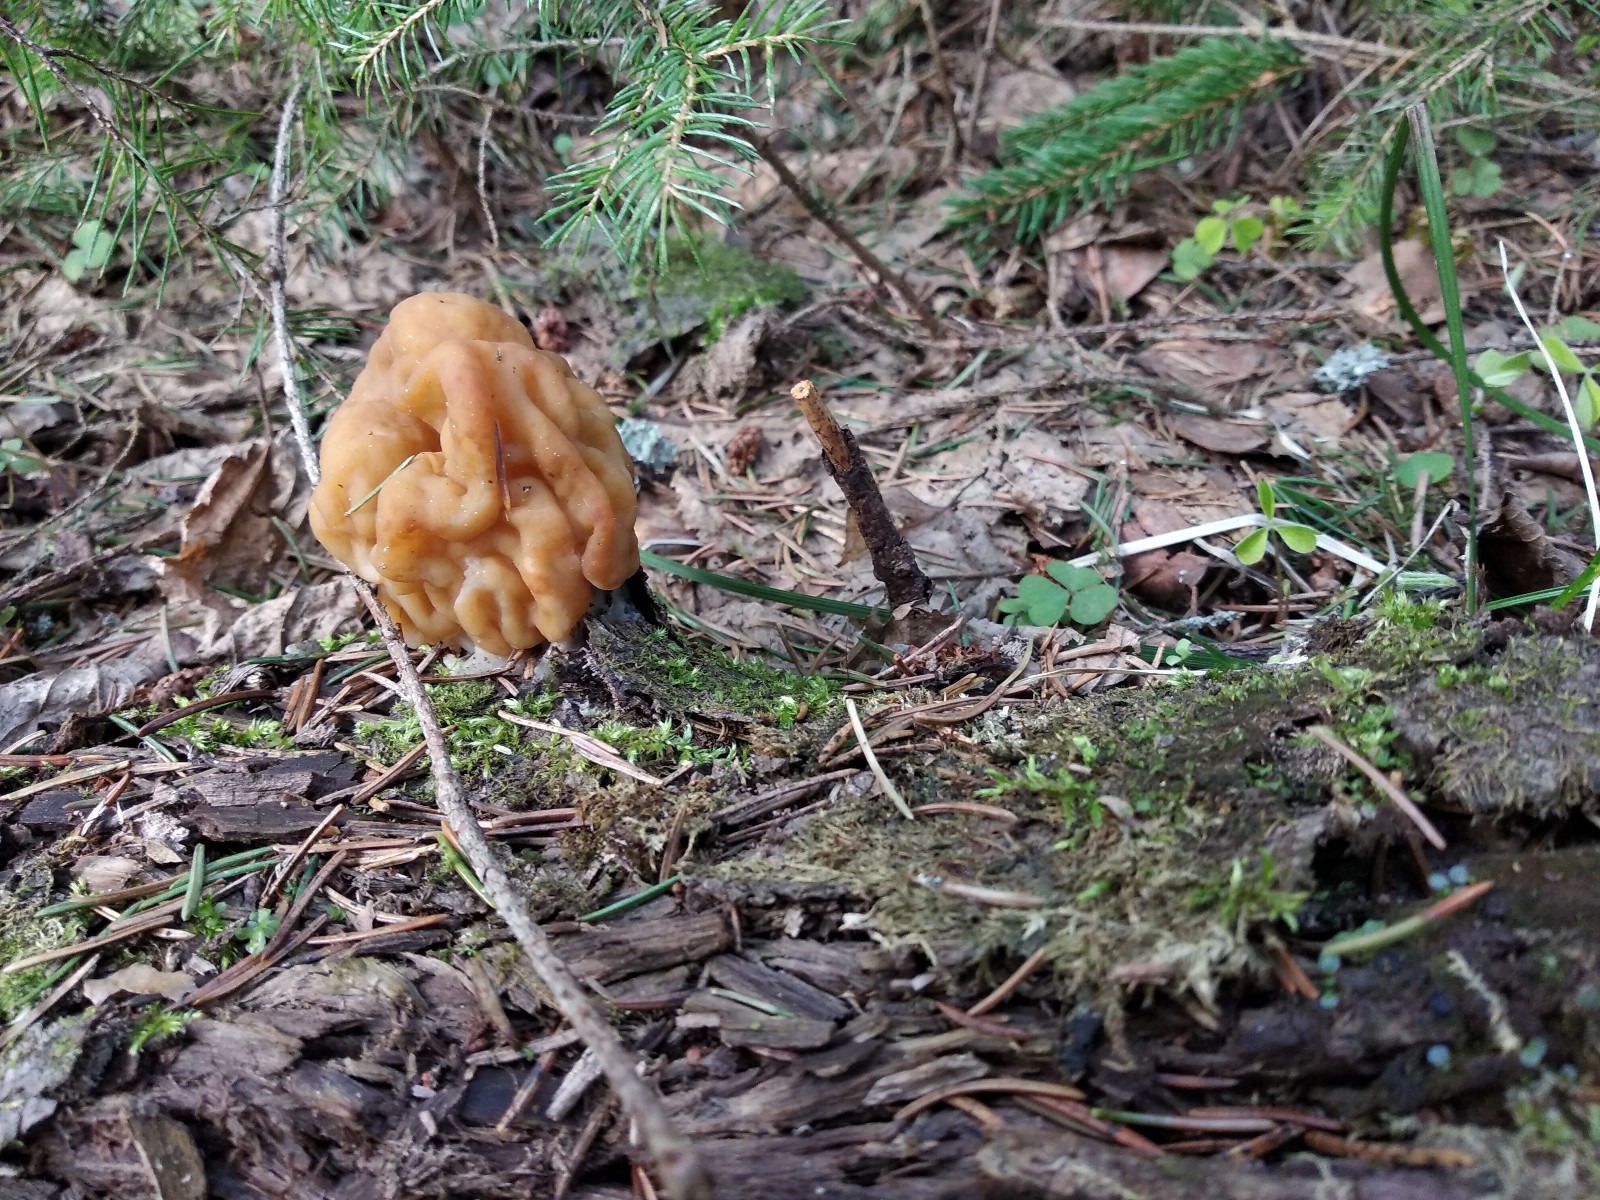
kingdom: Fungi
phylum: Ascomycota
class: Pezizomycetes
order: Pezizales
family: Discinaceae
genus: Gyromitra
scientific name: Gyromitra
